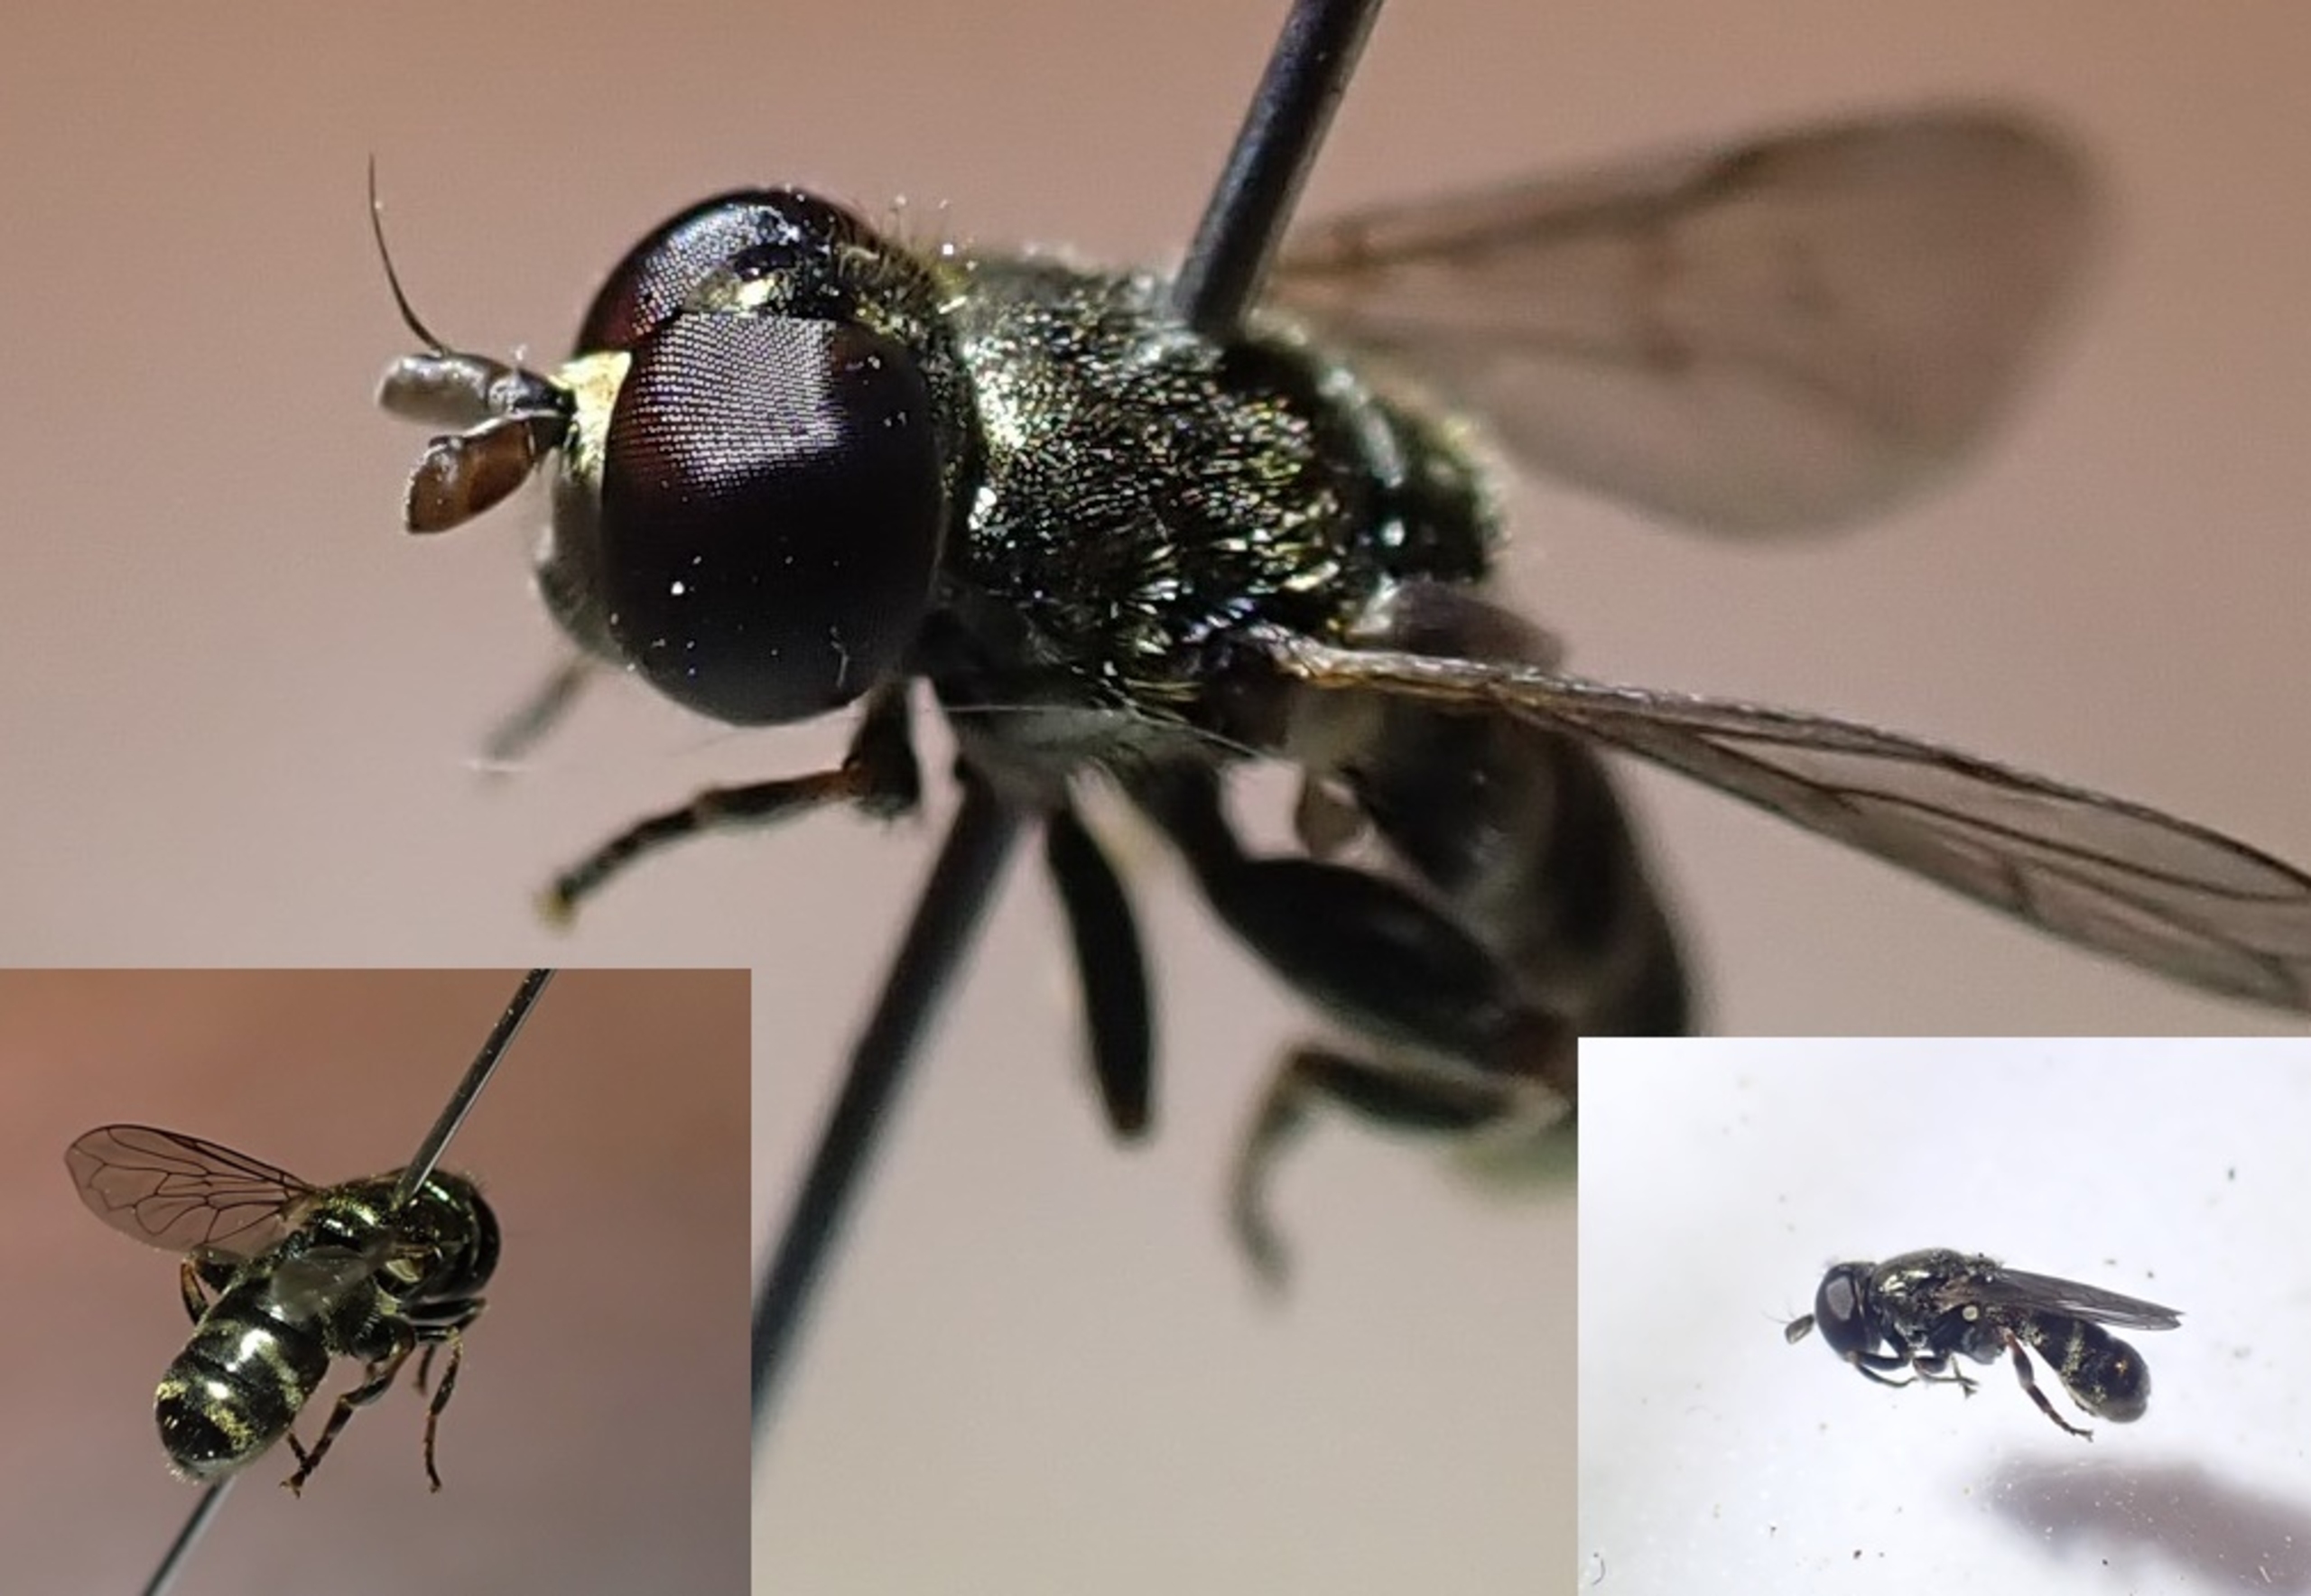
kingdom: Animalia
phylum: Arthropoda
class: Insecta
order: Diptera
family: Syrphidae
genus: Eumerus
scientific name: Eumerus funeralis
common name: Lille narcisflue
